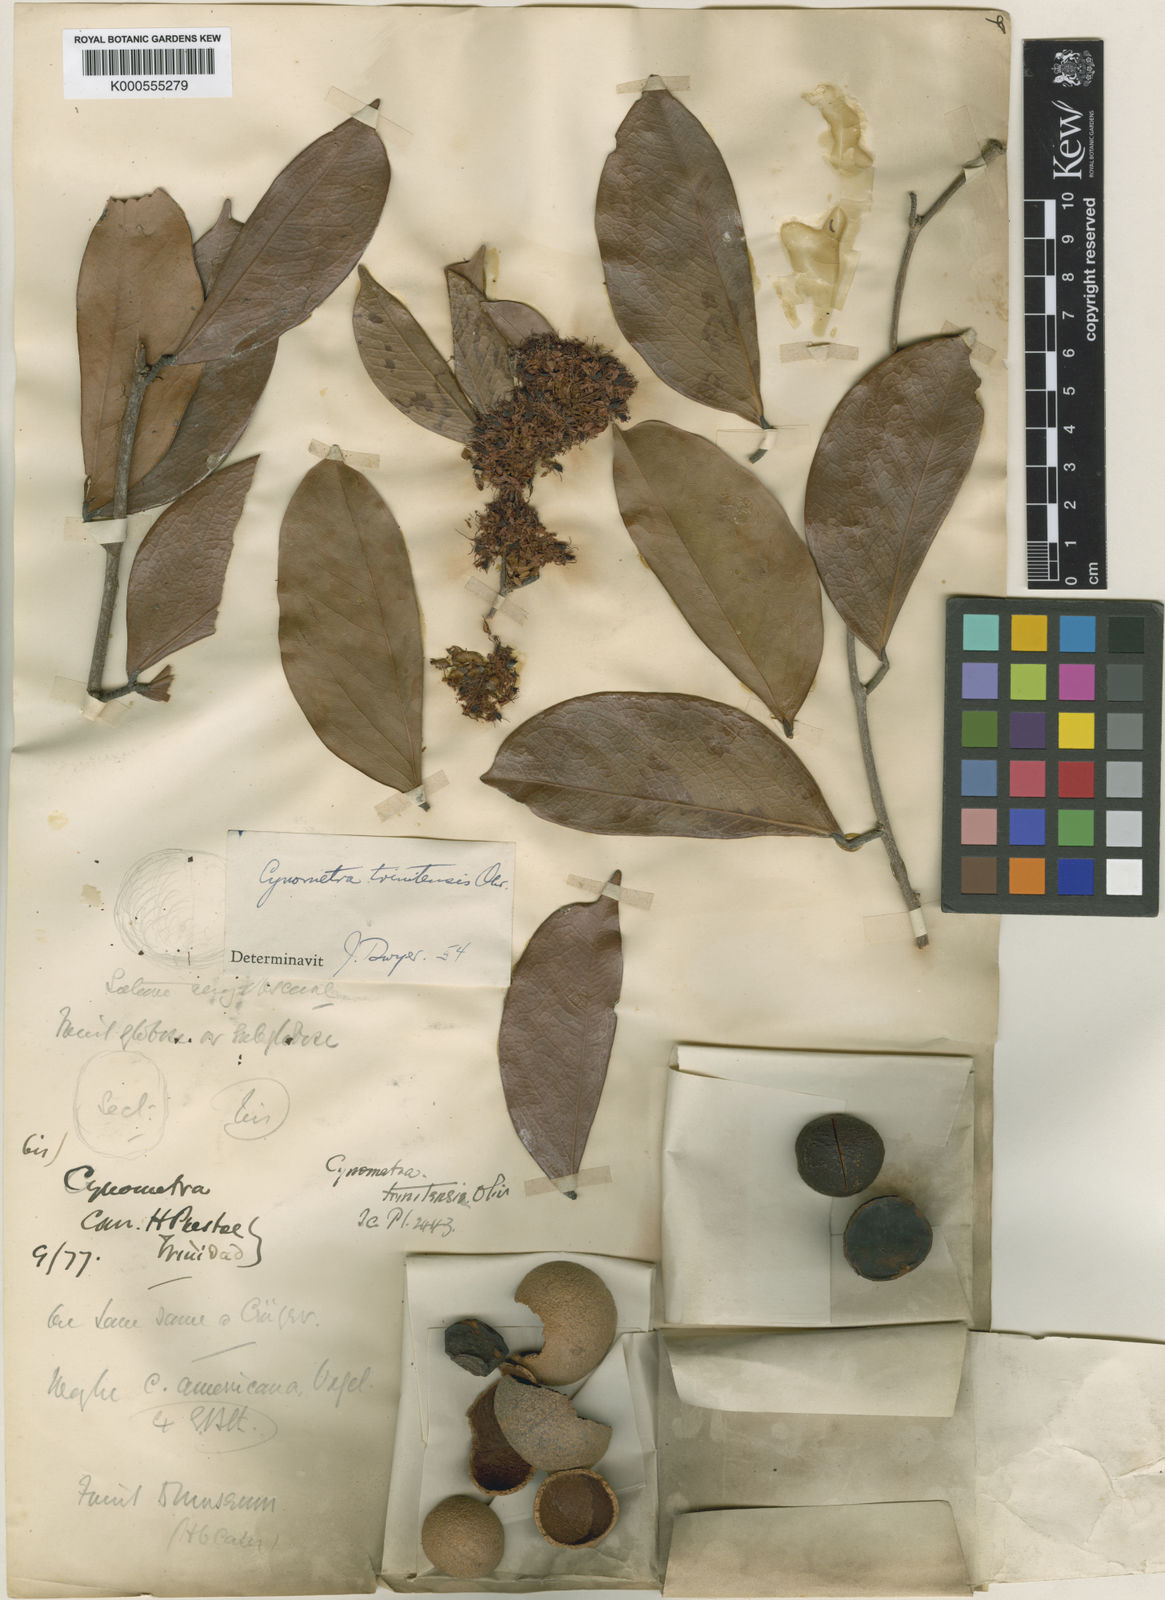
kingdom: Plantae
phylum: Tracheophyta
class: Magnoliopsida
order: Fabales
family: Fabaceae
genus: Cynometra
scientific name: Cynometra trinitensis
